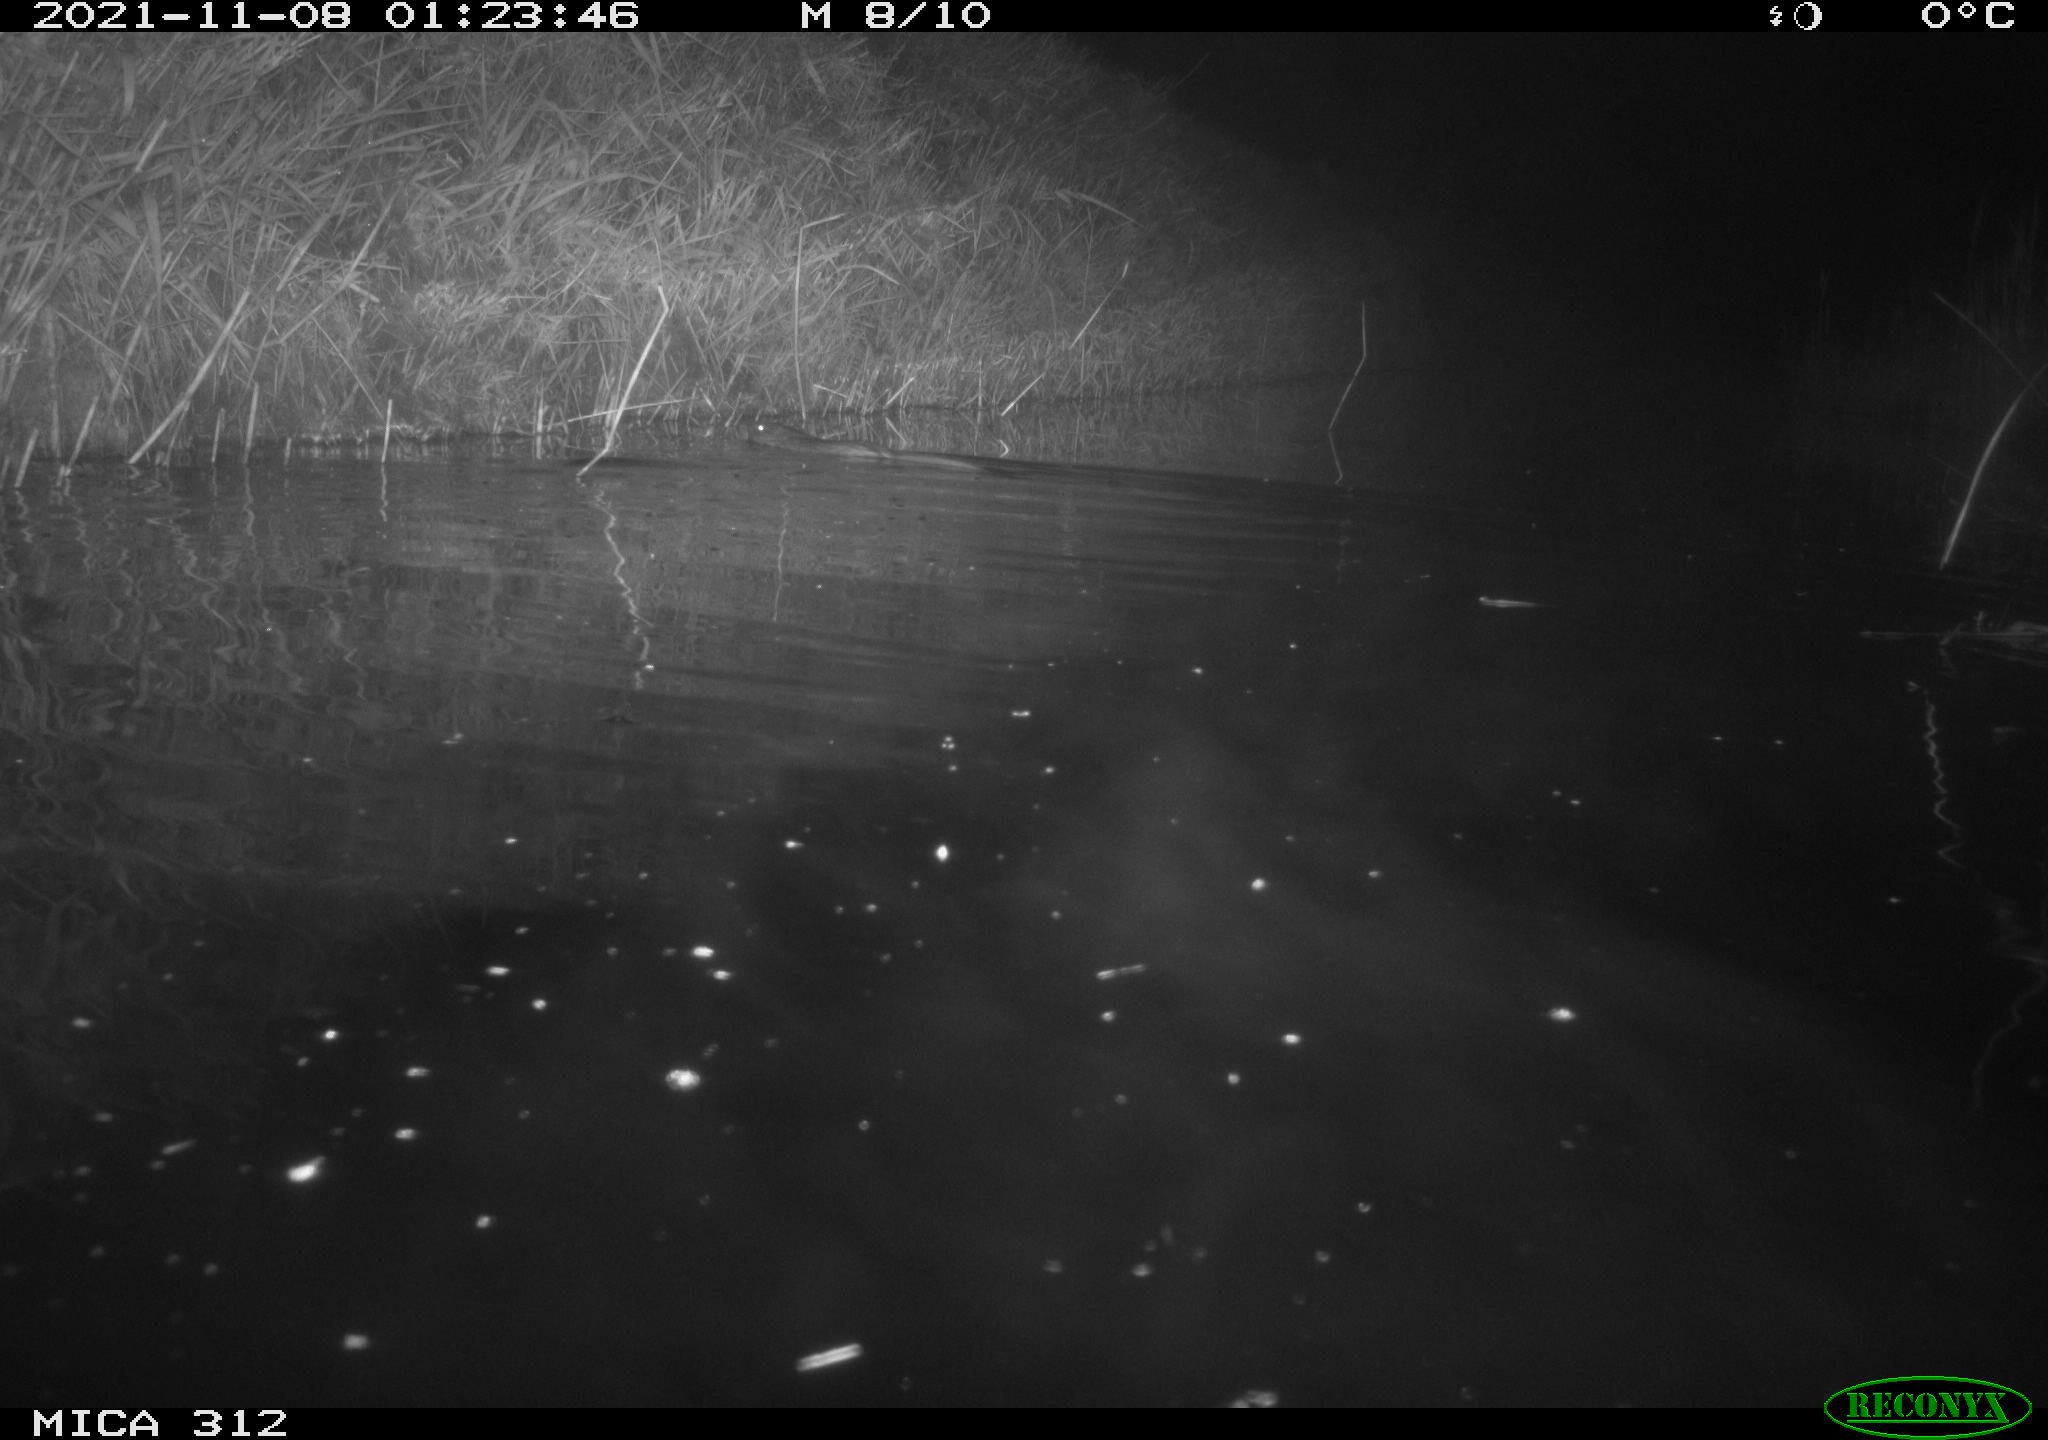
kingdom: Animalia
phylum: Chordata
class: Mammalia
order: Rodentia
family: Cricetidae
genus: Ondatra
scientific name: Ondatra zibethicus
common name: Muskrat
